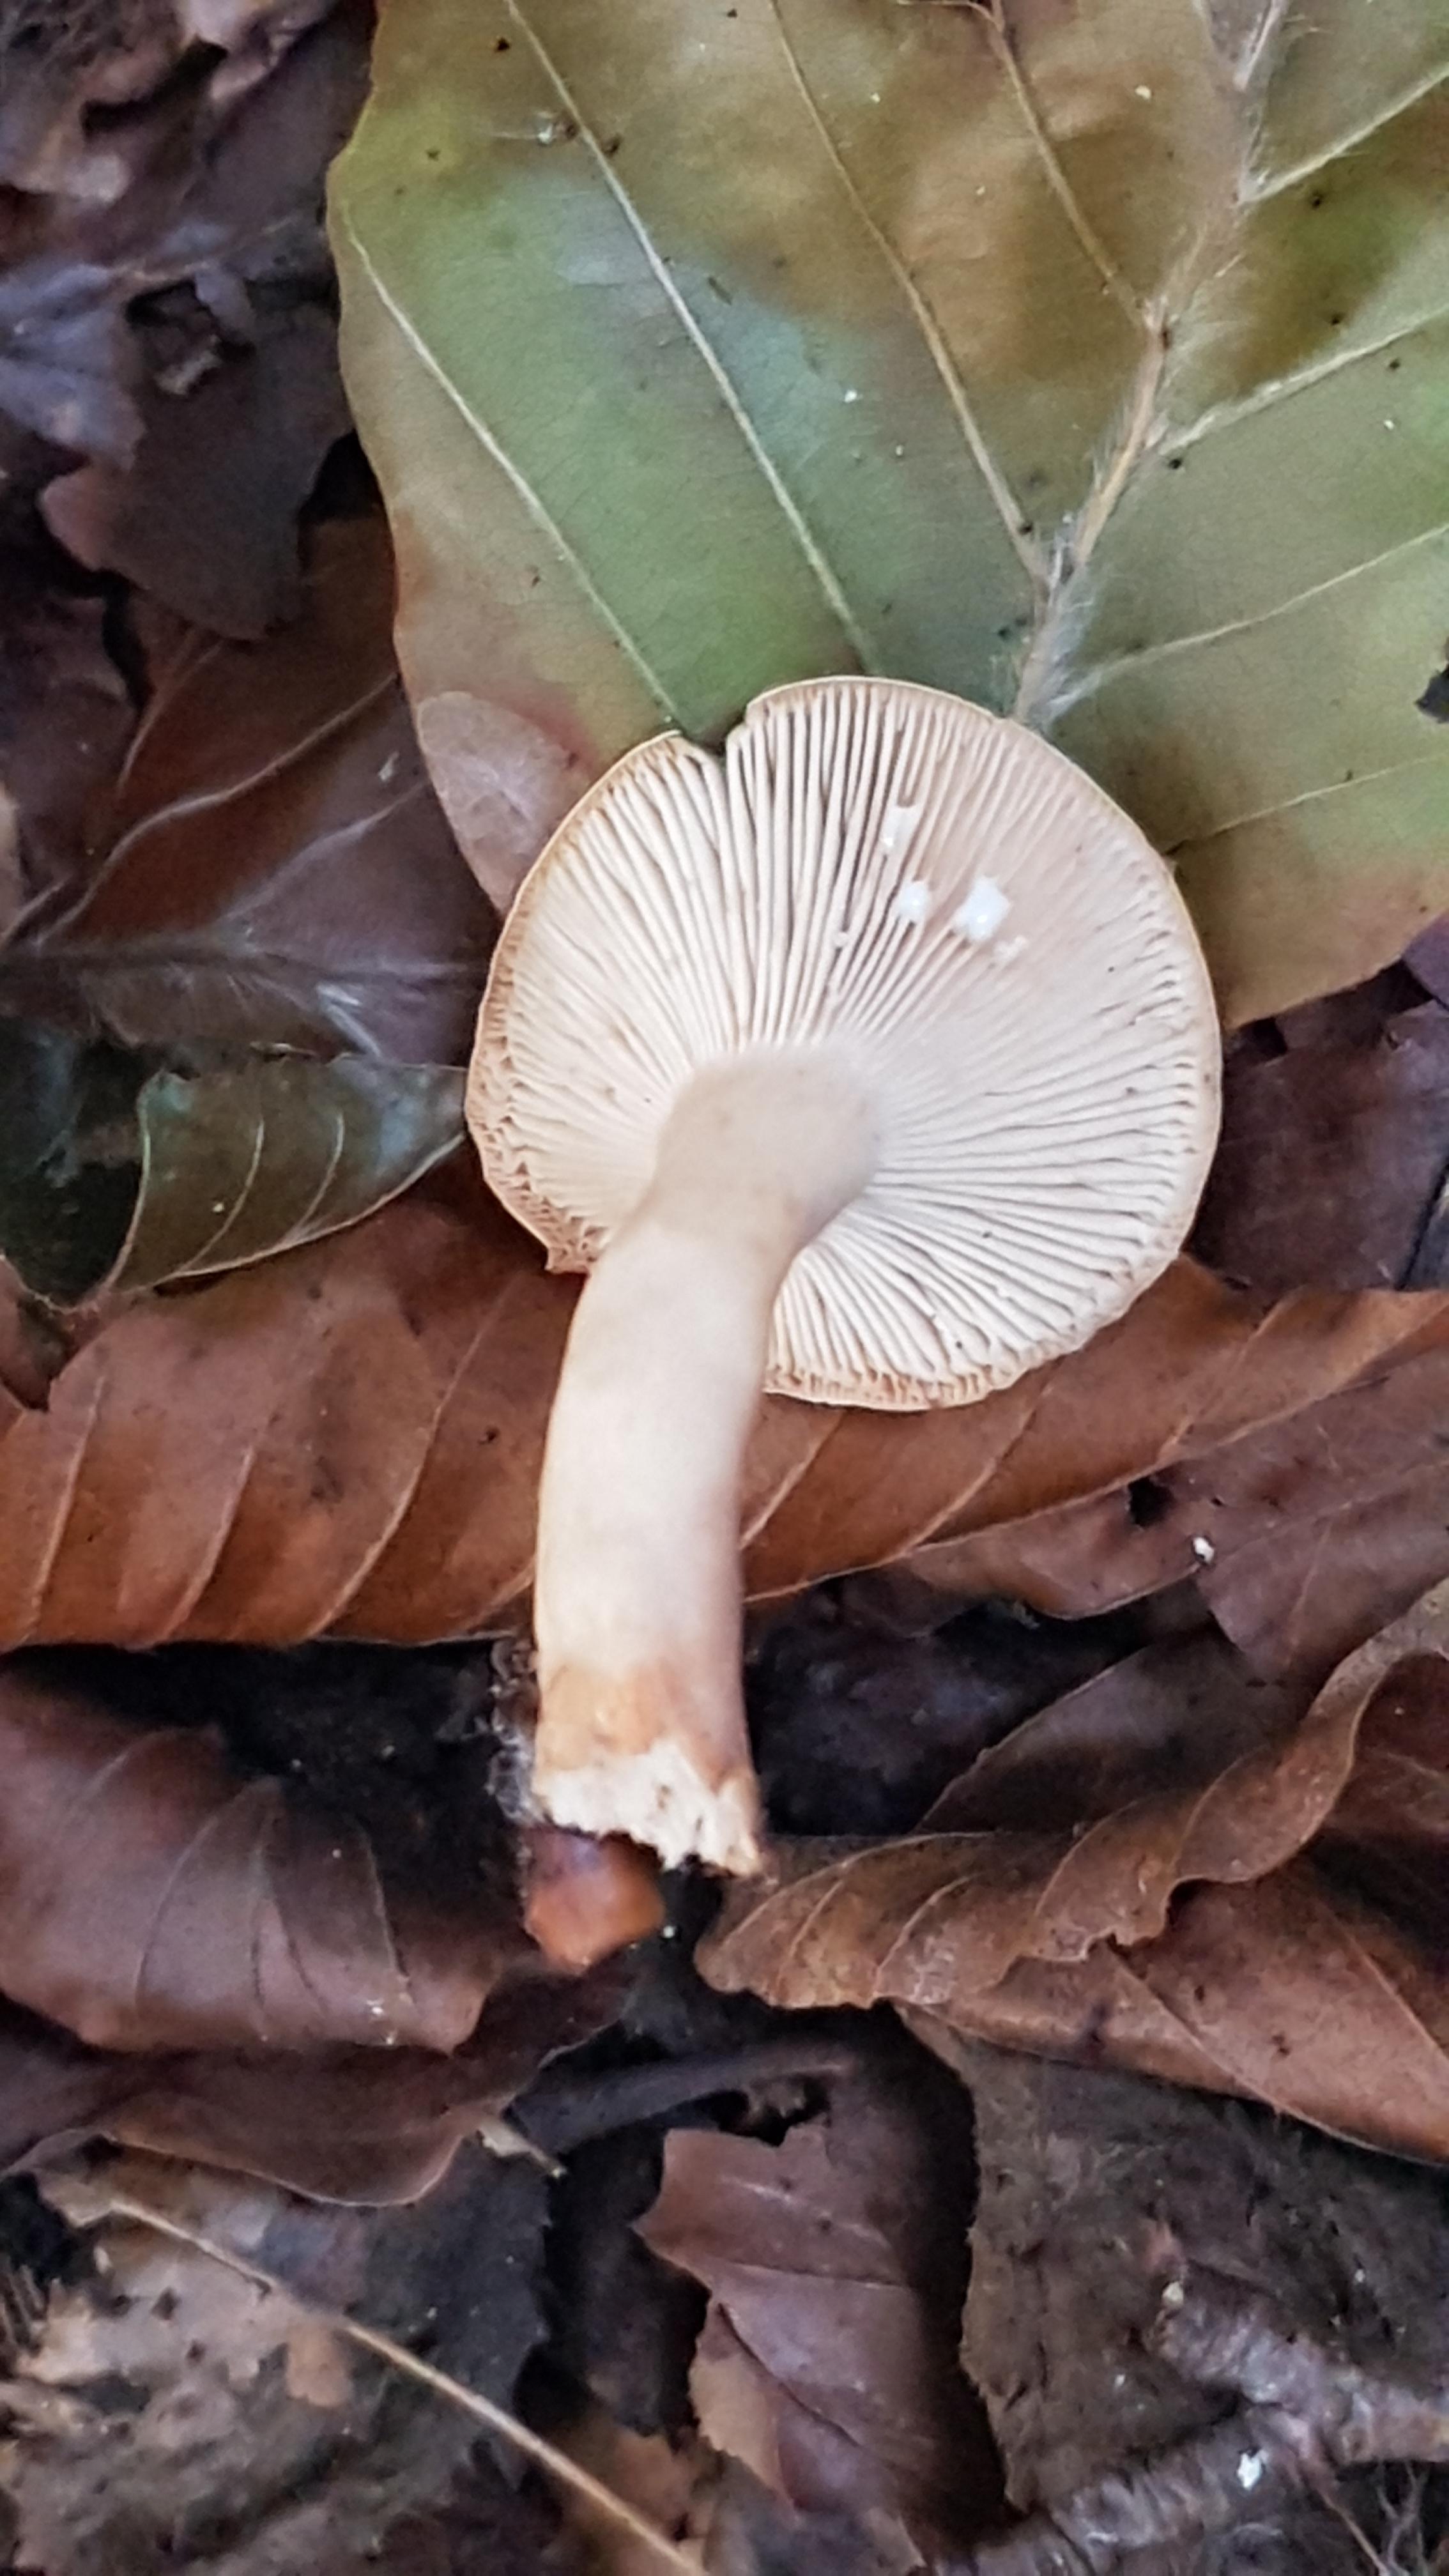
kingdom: Fungi
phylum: Basidiomycota
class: Agaricomycetes
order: Russulales
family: Russulaceae
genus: Lactarius
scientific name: Lactarius subdulcis
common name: sødlig mælkehat
